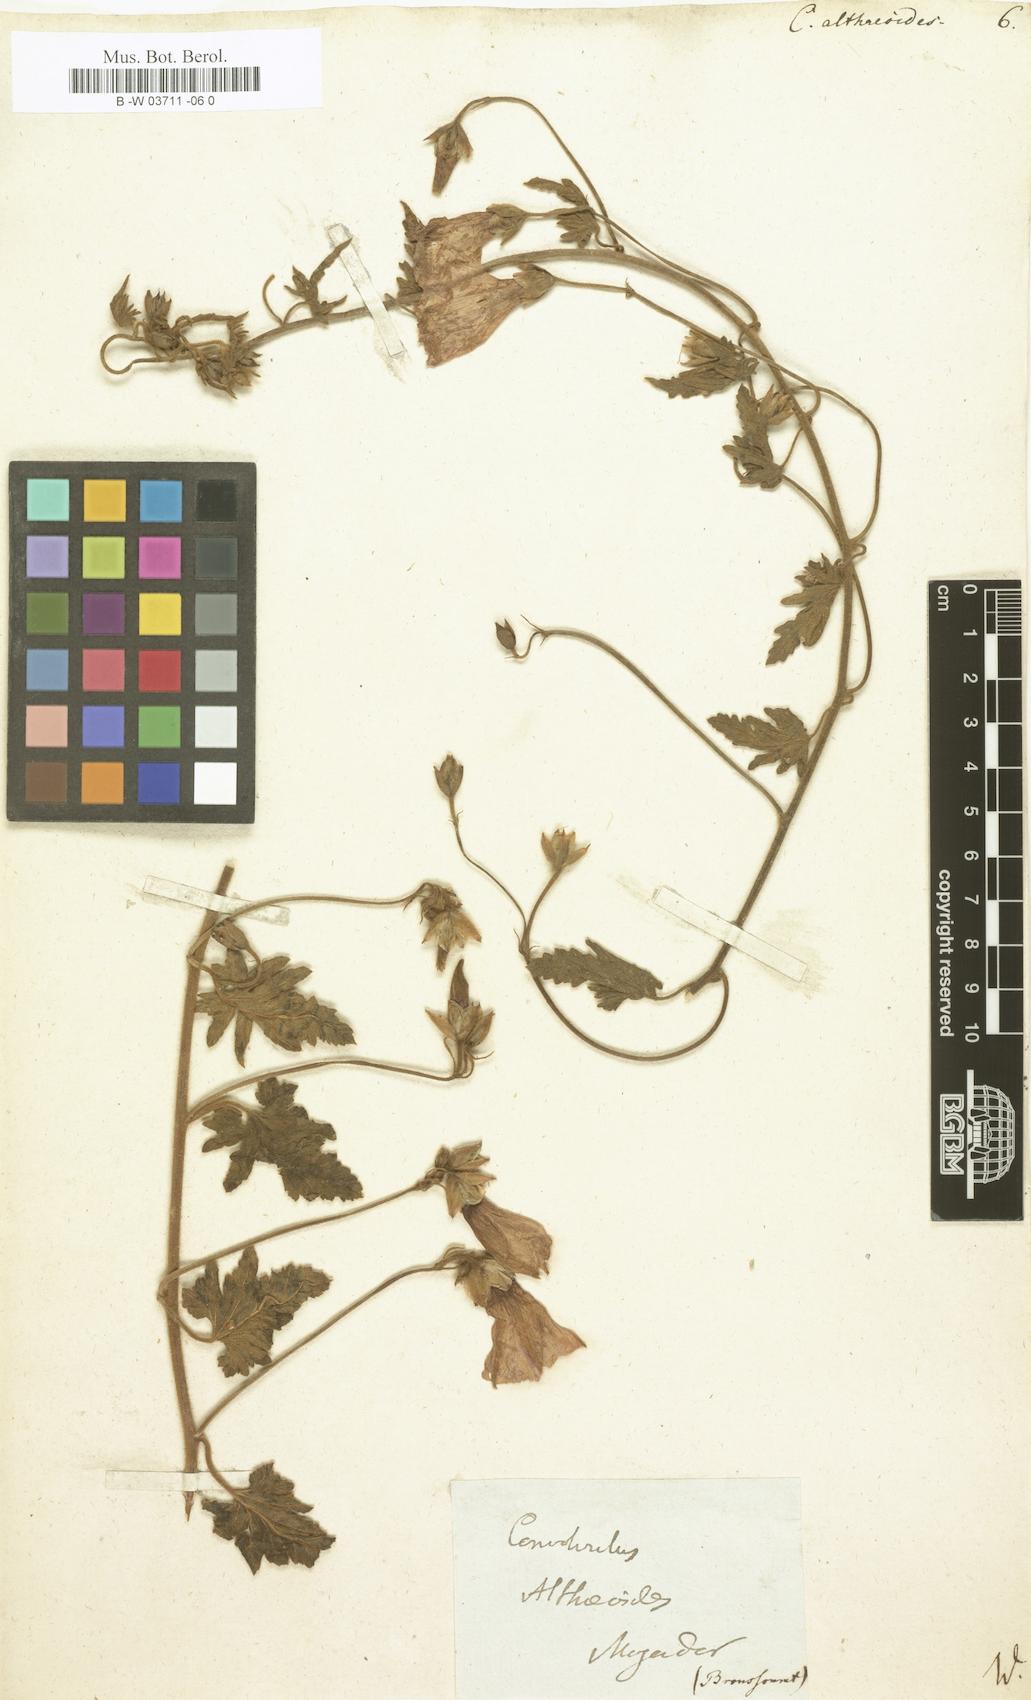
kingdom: Plantae
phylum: Tracheophyta
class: Magnoliopsida
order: Solanales
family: Convolvulaceae
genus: Convolvulus
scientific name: Convolvulus althaeoides
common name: Mallow bindweed
